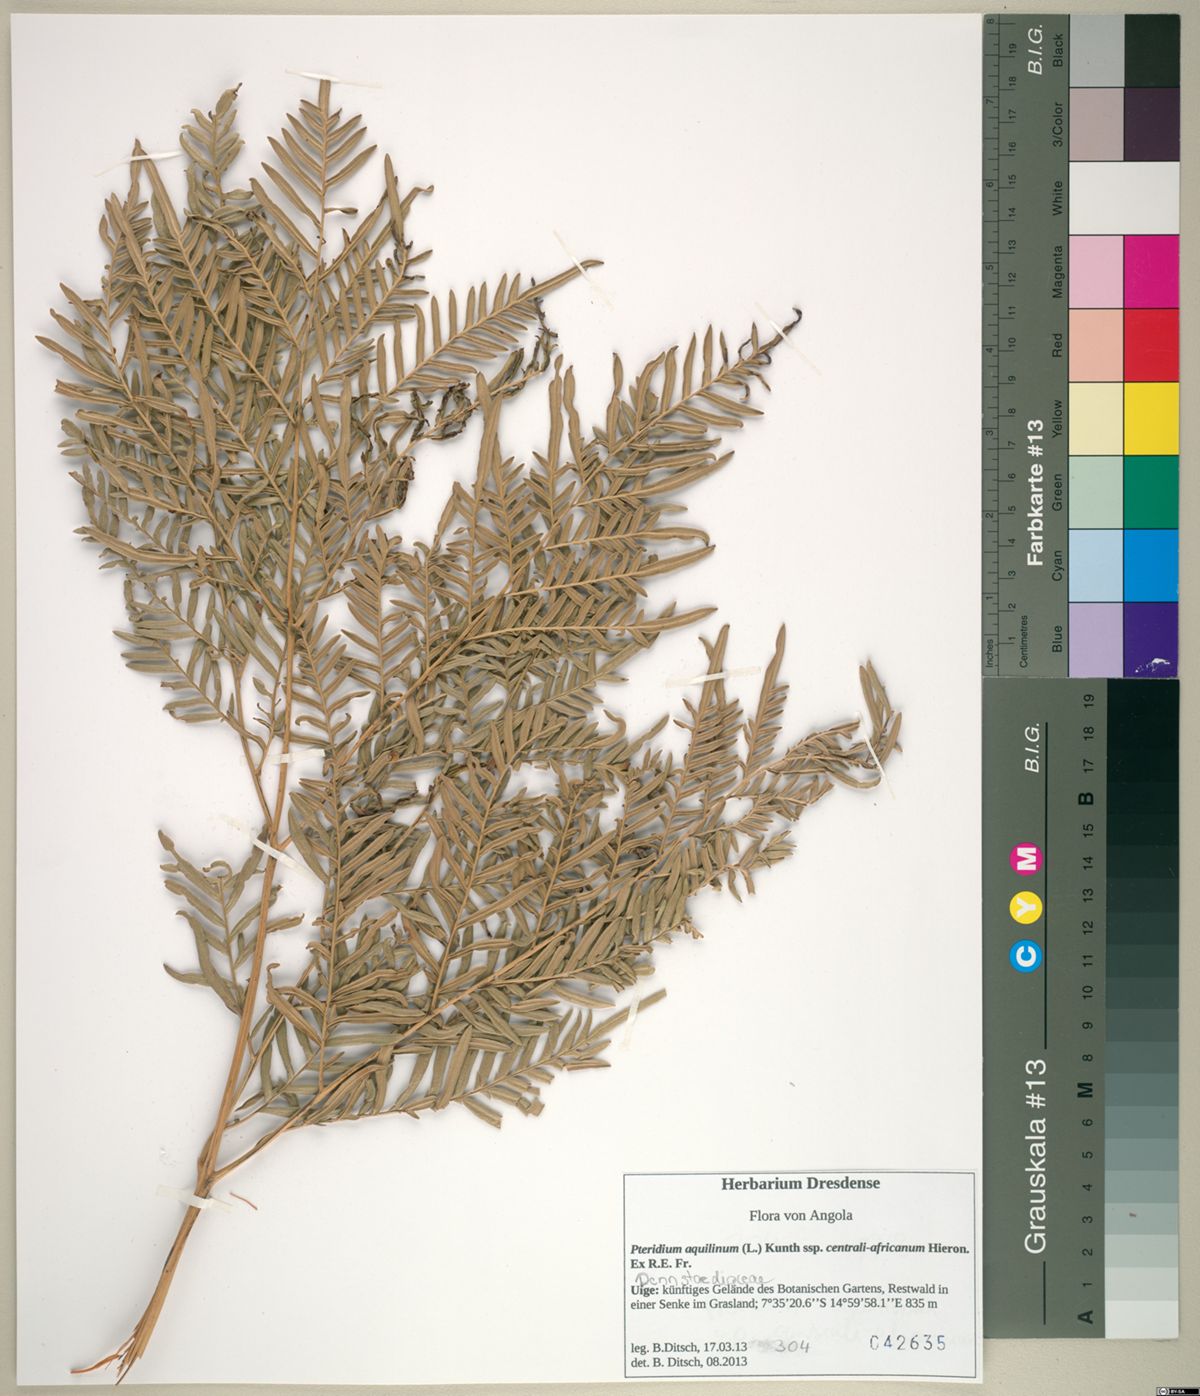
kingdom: Plantae
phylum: Tracheophyta
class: Polypodiopsida
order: Polypodiales
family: Dennstaedtiaceae
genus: Pteridium
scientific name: Pteridium aquilinum
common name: Bracken
